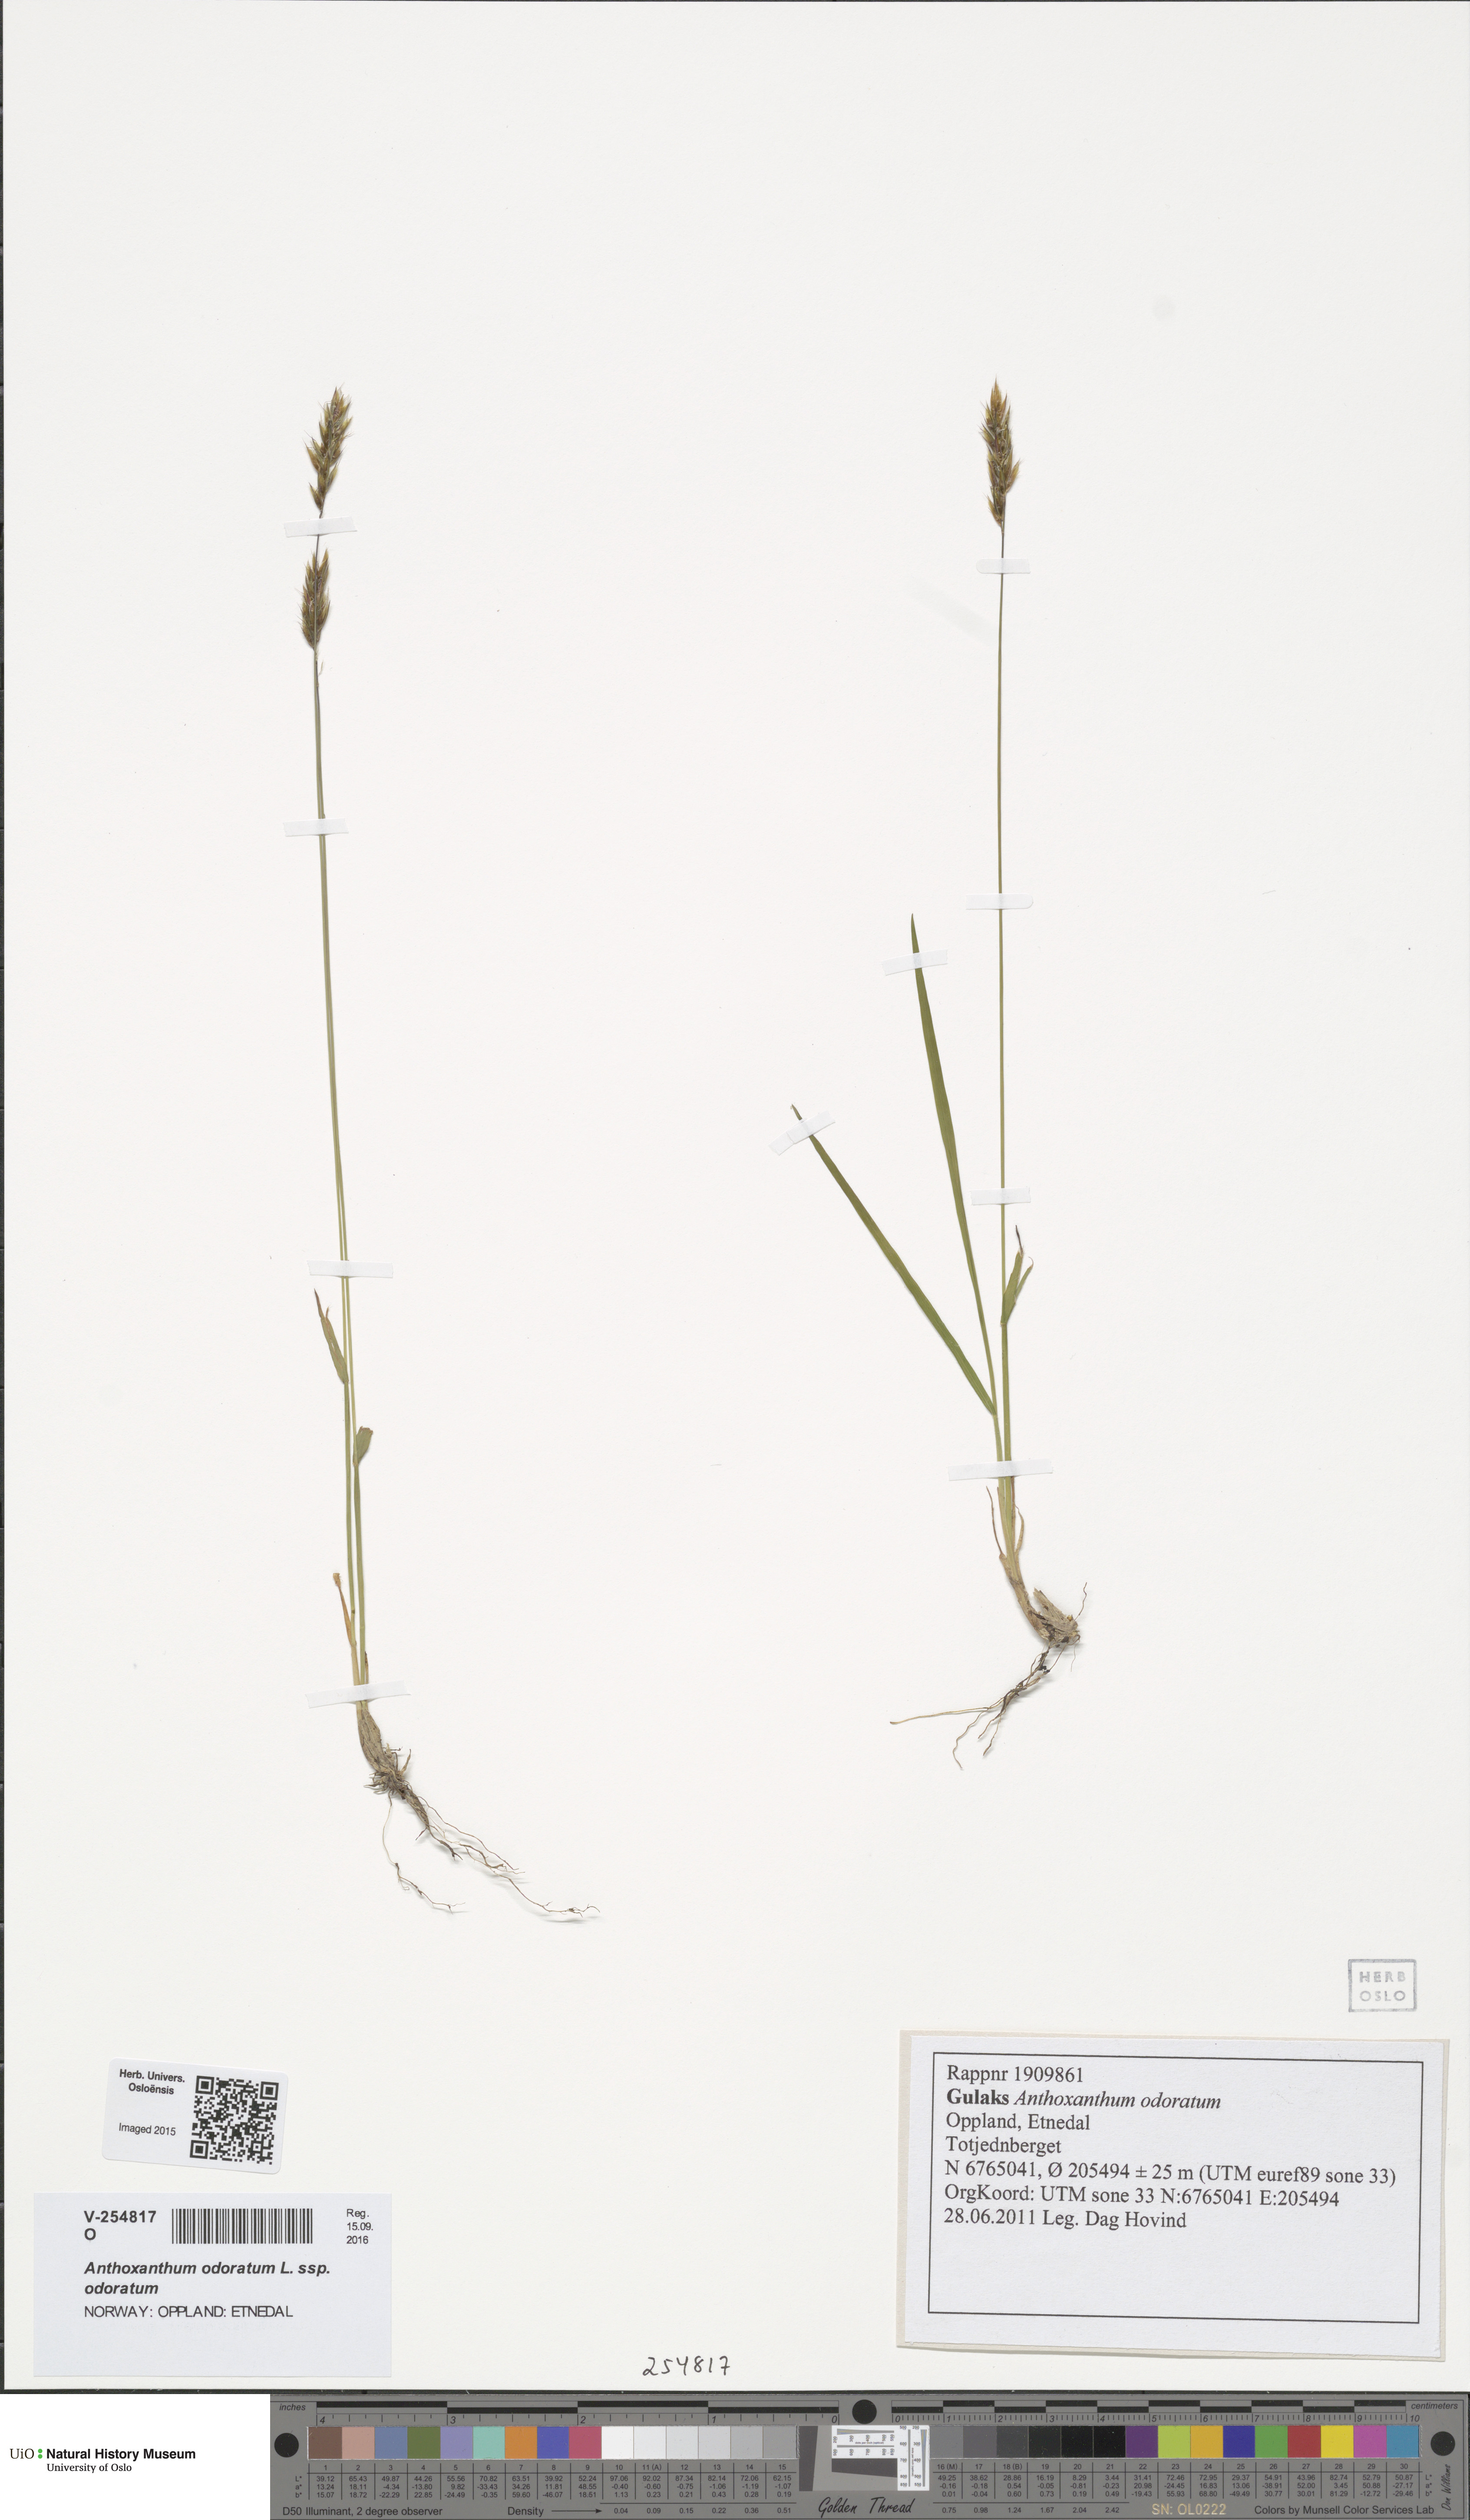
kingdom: Plantae
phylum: Tracheophyta
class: Liliopsida
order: Poales
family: Poaceae
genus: Anthoxanthum
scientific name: Anthoxanthum odoratum
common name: Sweet vernalgrass
